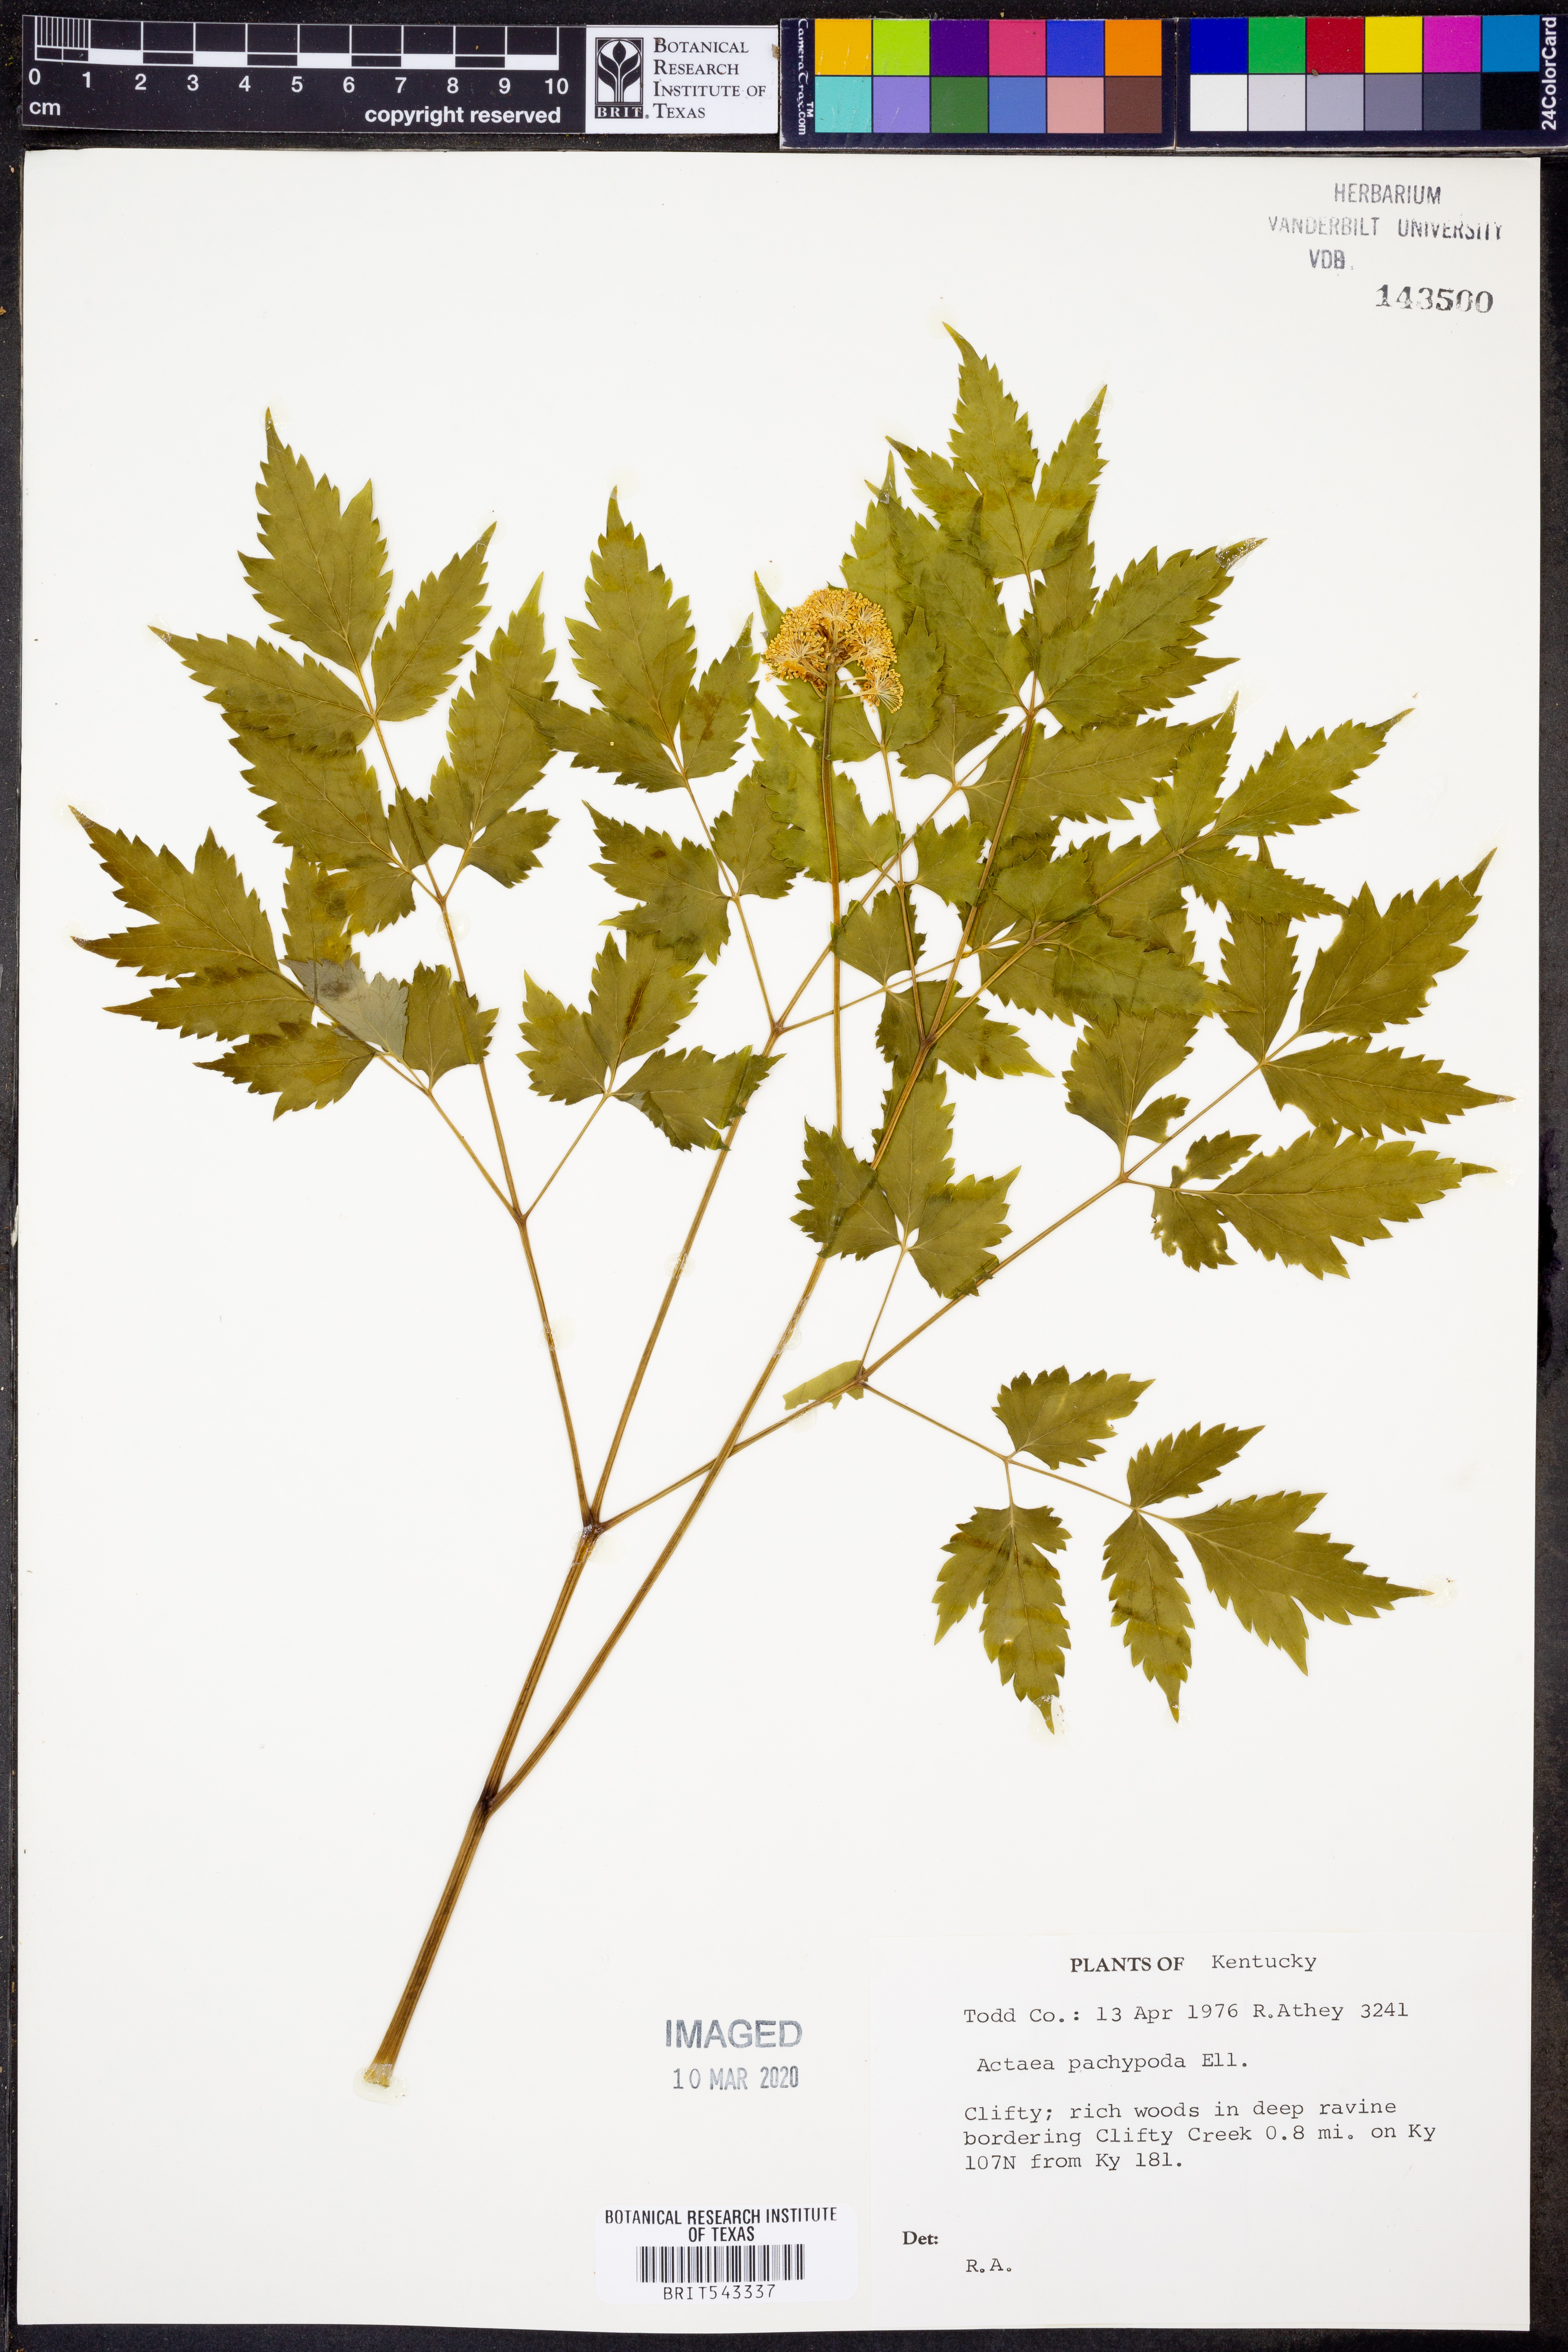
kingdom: Plantae
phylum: Tracheophyta
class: Magnoliopsida
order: Ranunculales
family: Ranunculaceae
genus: Actaea
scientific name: Actaea pachypoda
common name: Doll's-eyes
